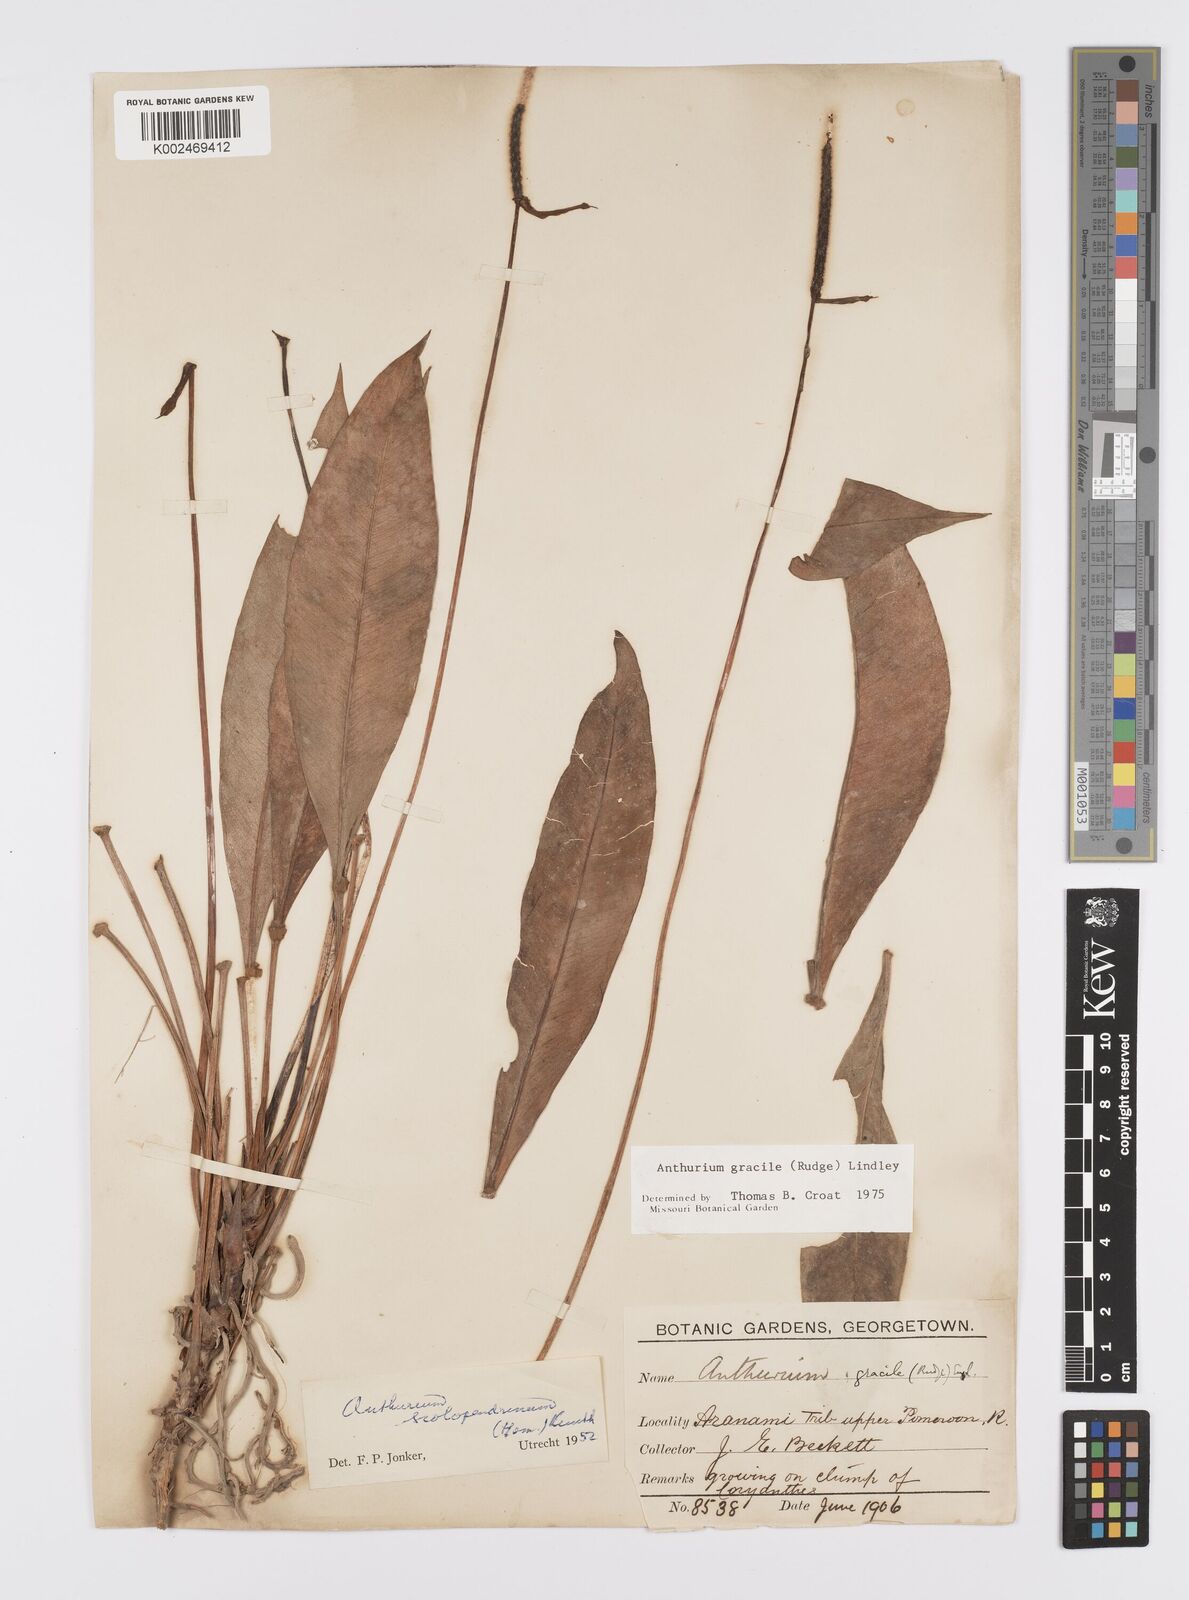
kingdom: Plantae
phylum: Tracheophyta
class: Liliopsida
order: Alismatales
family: Araceae
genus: Anthurium
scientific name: Anthurium gracile
